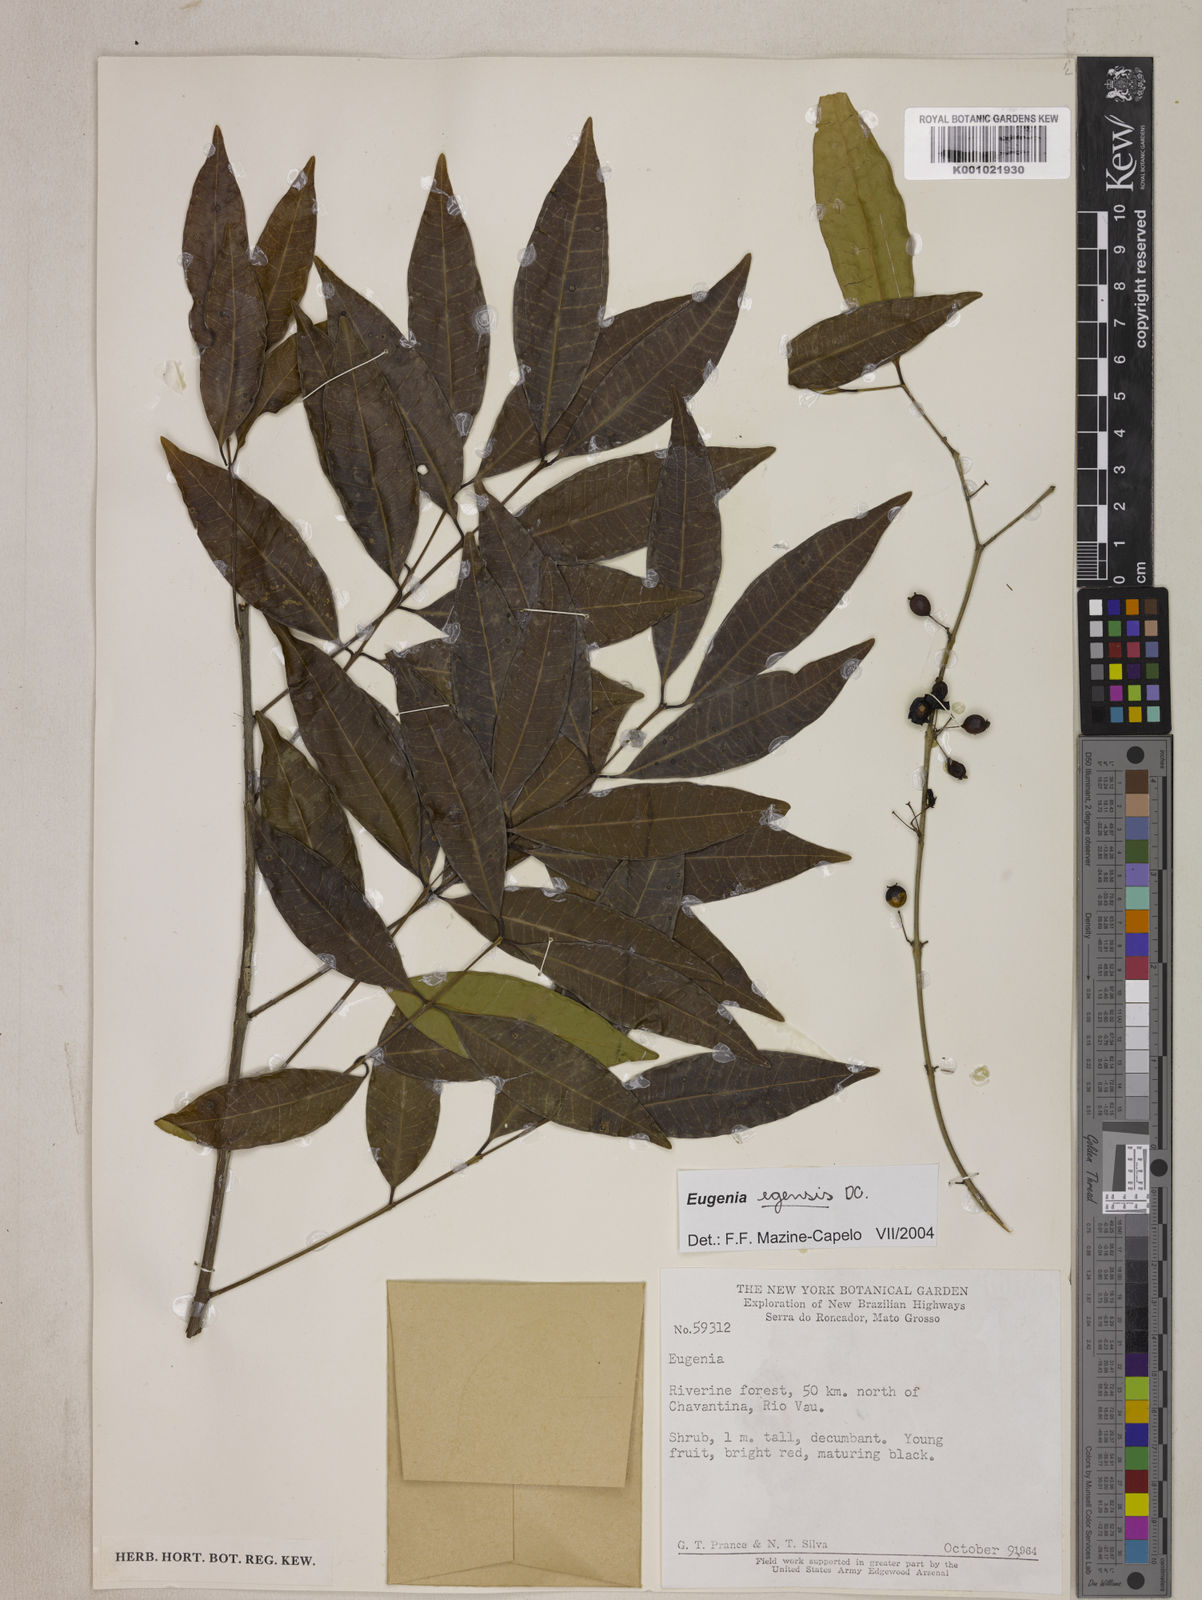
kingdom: Plantae
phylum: Tracheophyta
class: Magnoliopsida
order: Myrtales
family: Myrtaceae
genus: Eugenia
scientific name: Eugenia egensis
